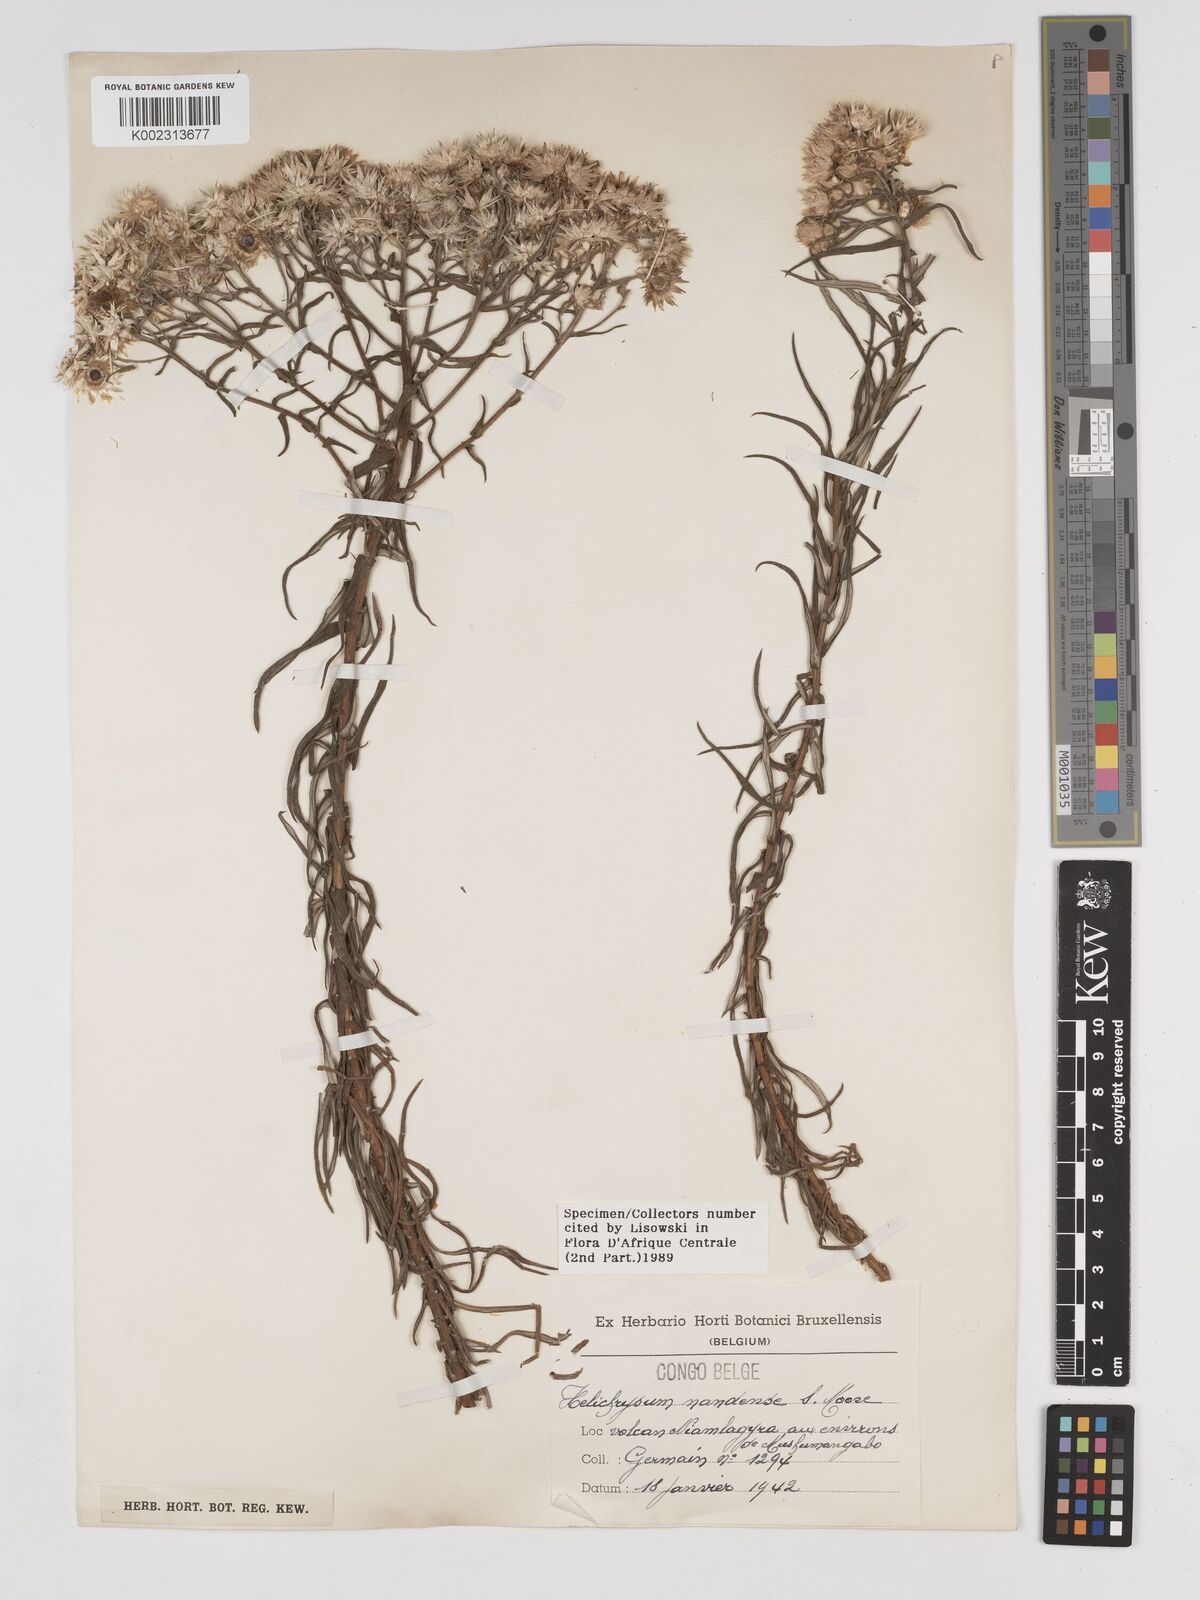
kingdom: Plantae
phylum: Tracheophyta
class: Magnoliopsida
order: Asterales
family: Asteraceae
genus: Helichrysum
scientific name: Helichrysum argyranthum
